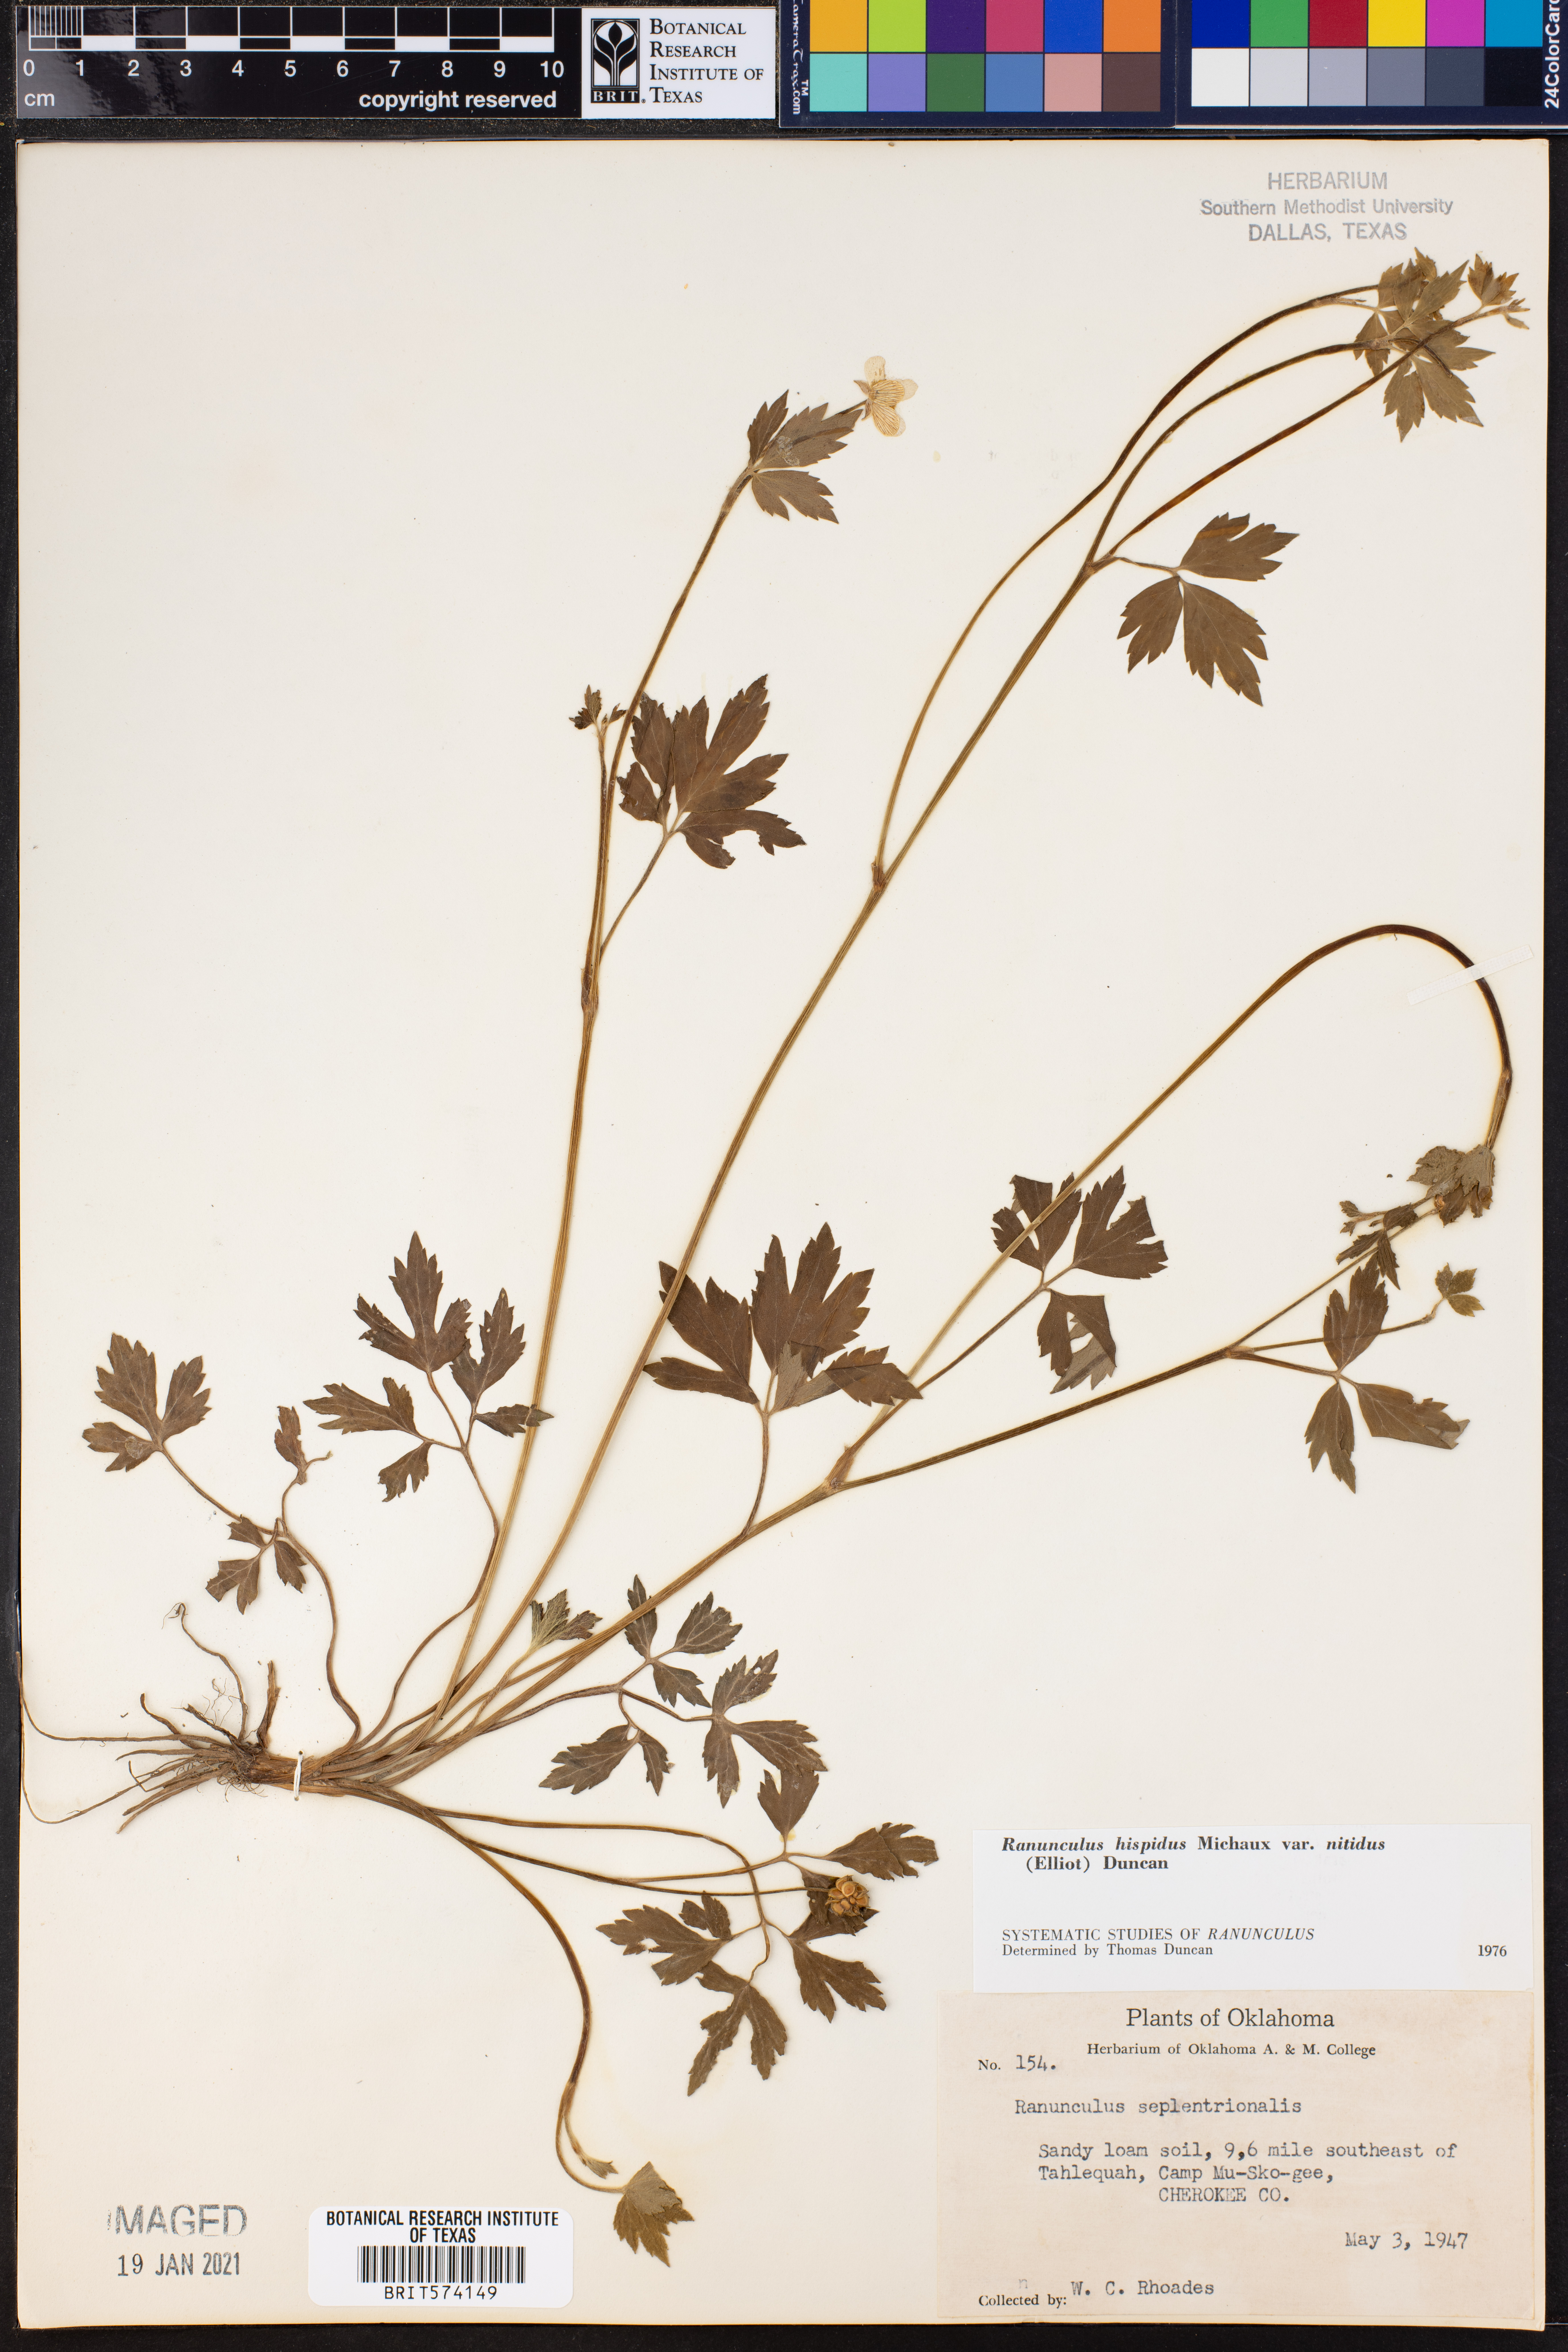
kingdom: Plantae
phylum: Tracheophyta
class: Magnoliopsida
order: Ranunculales
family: Ranunculaceae
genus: Ranunculus
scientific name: Ranunculus hispidus
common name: Bristly buttercup
